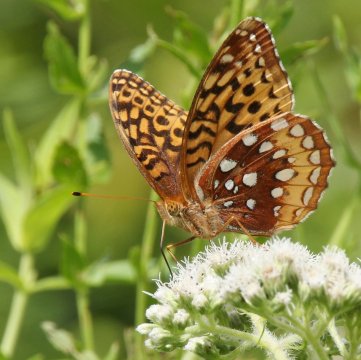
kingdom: Animalia
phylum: Arthropoda
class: Insecta
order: Lepidoptera
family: Nymphalidae
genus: Speyeria
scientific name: Speyeria cybele
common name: Great Spangled Fritillary
